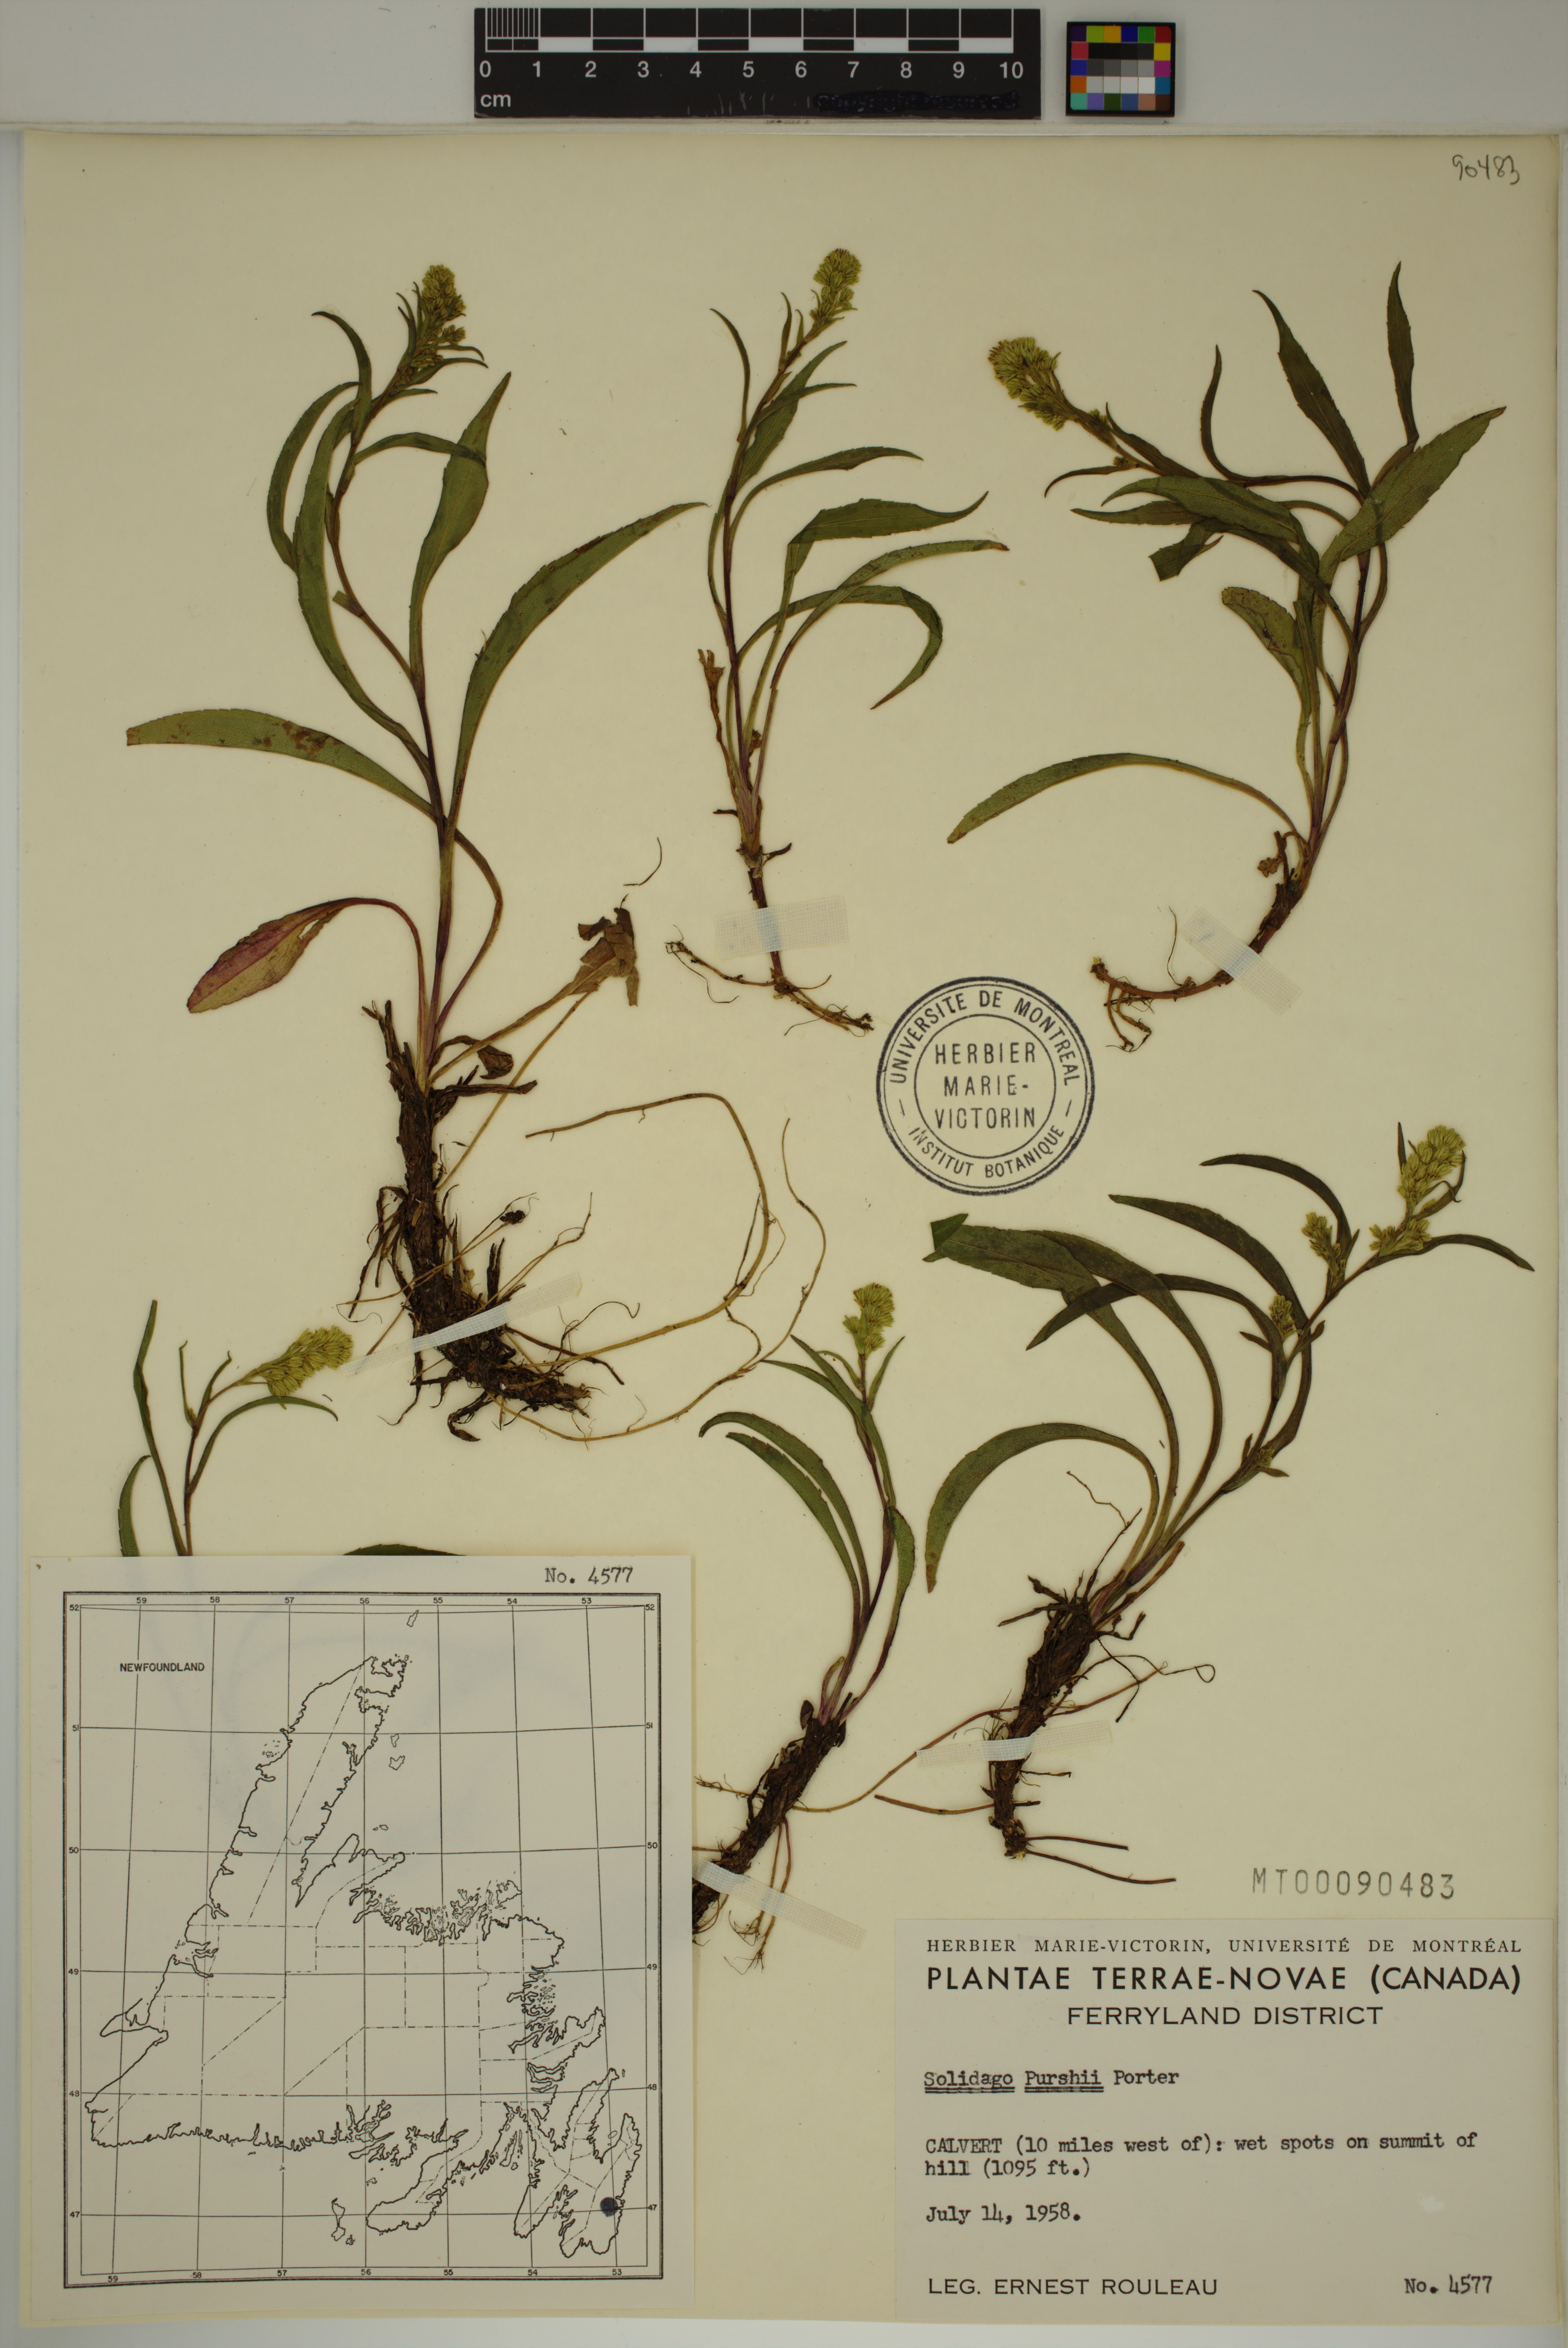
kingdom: Plantae
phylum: Tracheophyta
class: Magnoliopsida
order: Asterales
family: Asteraceae
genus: Solidago
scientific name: Solidago uliginosa
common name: Bog goldenrod
